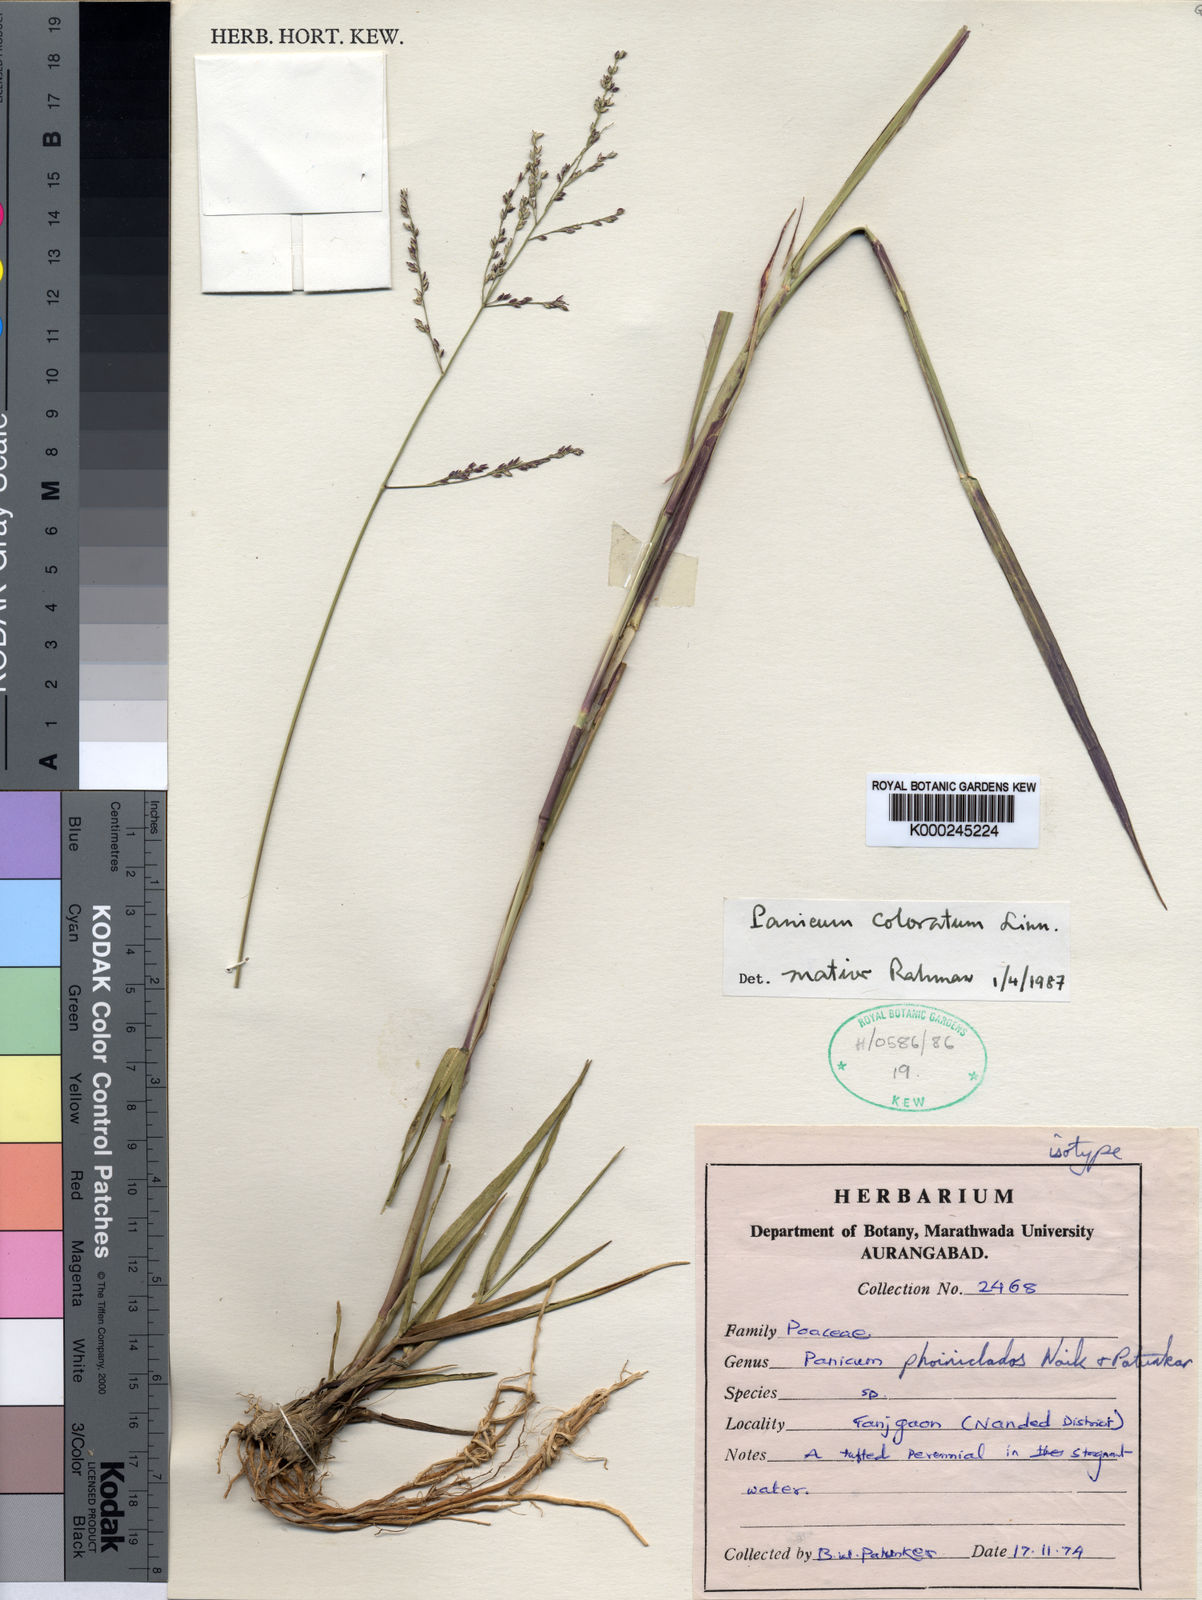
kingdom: Plantae
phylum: Tracheophyta
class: Liliopsida
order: Poales
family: Poaceae
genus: Panicum
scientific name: Panicum phoiniclados
